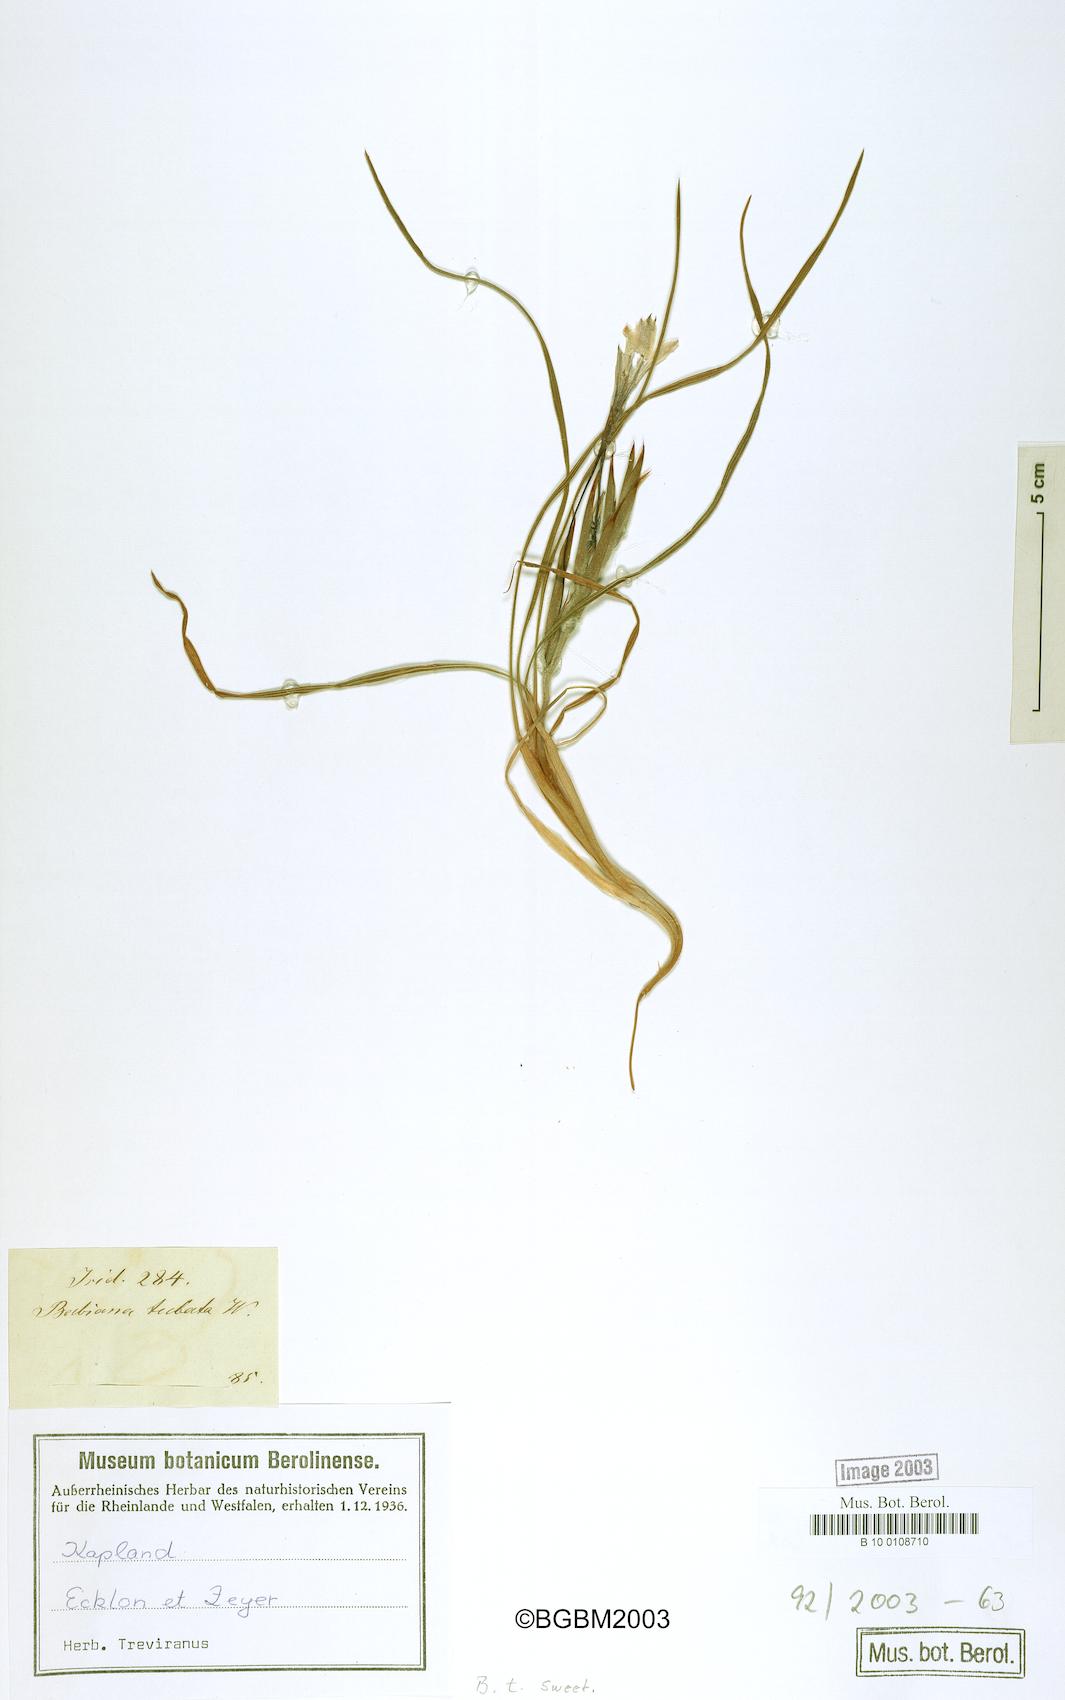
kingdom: Plantae
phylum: Tracheophyta
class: Liliopsida
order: Asparagales
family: Iridaceae
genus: Babiana
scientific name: Babiana tubulosa
